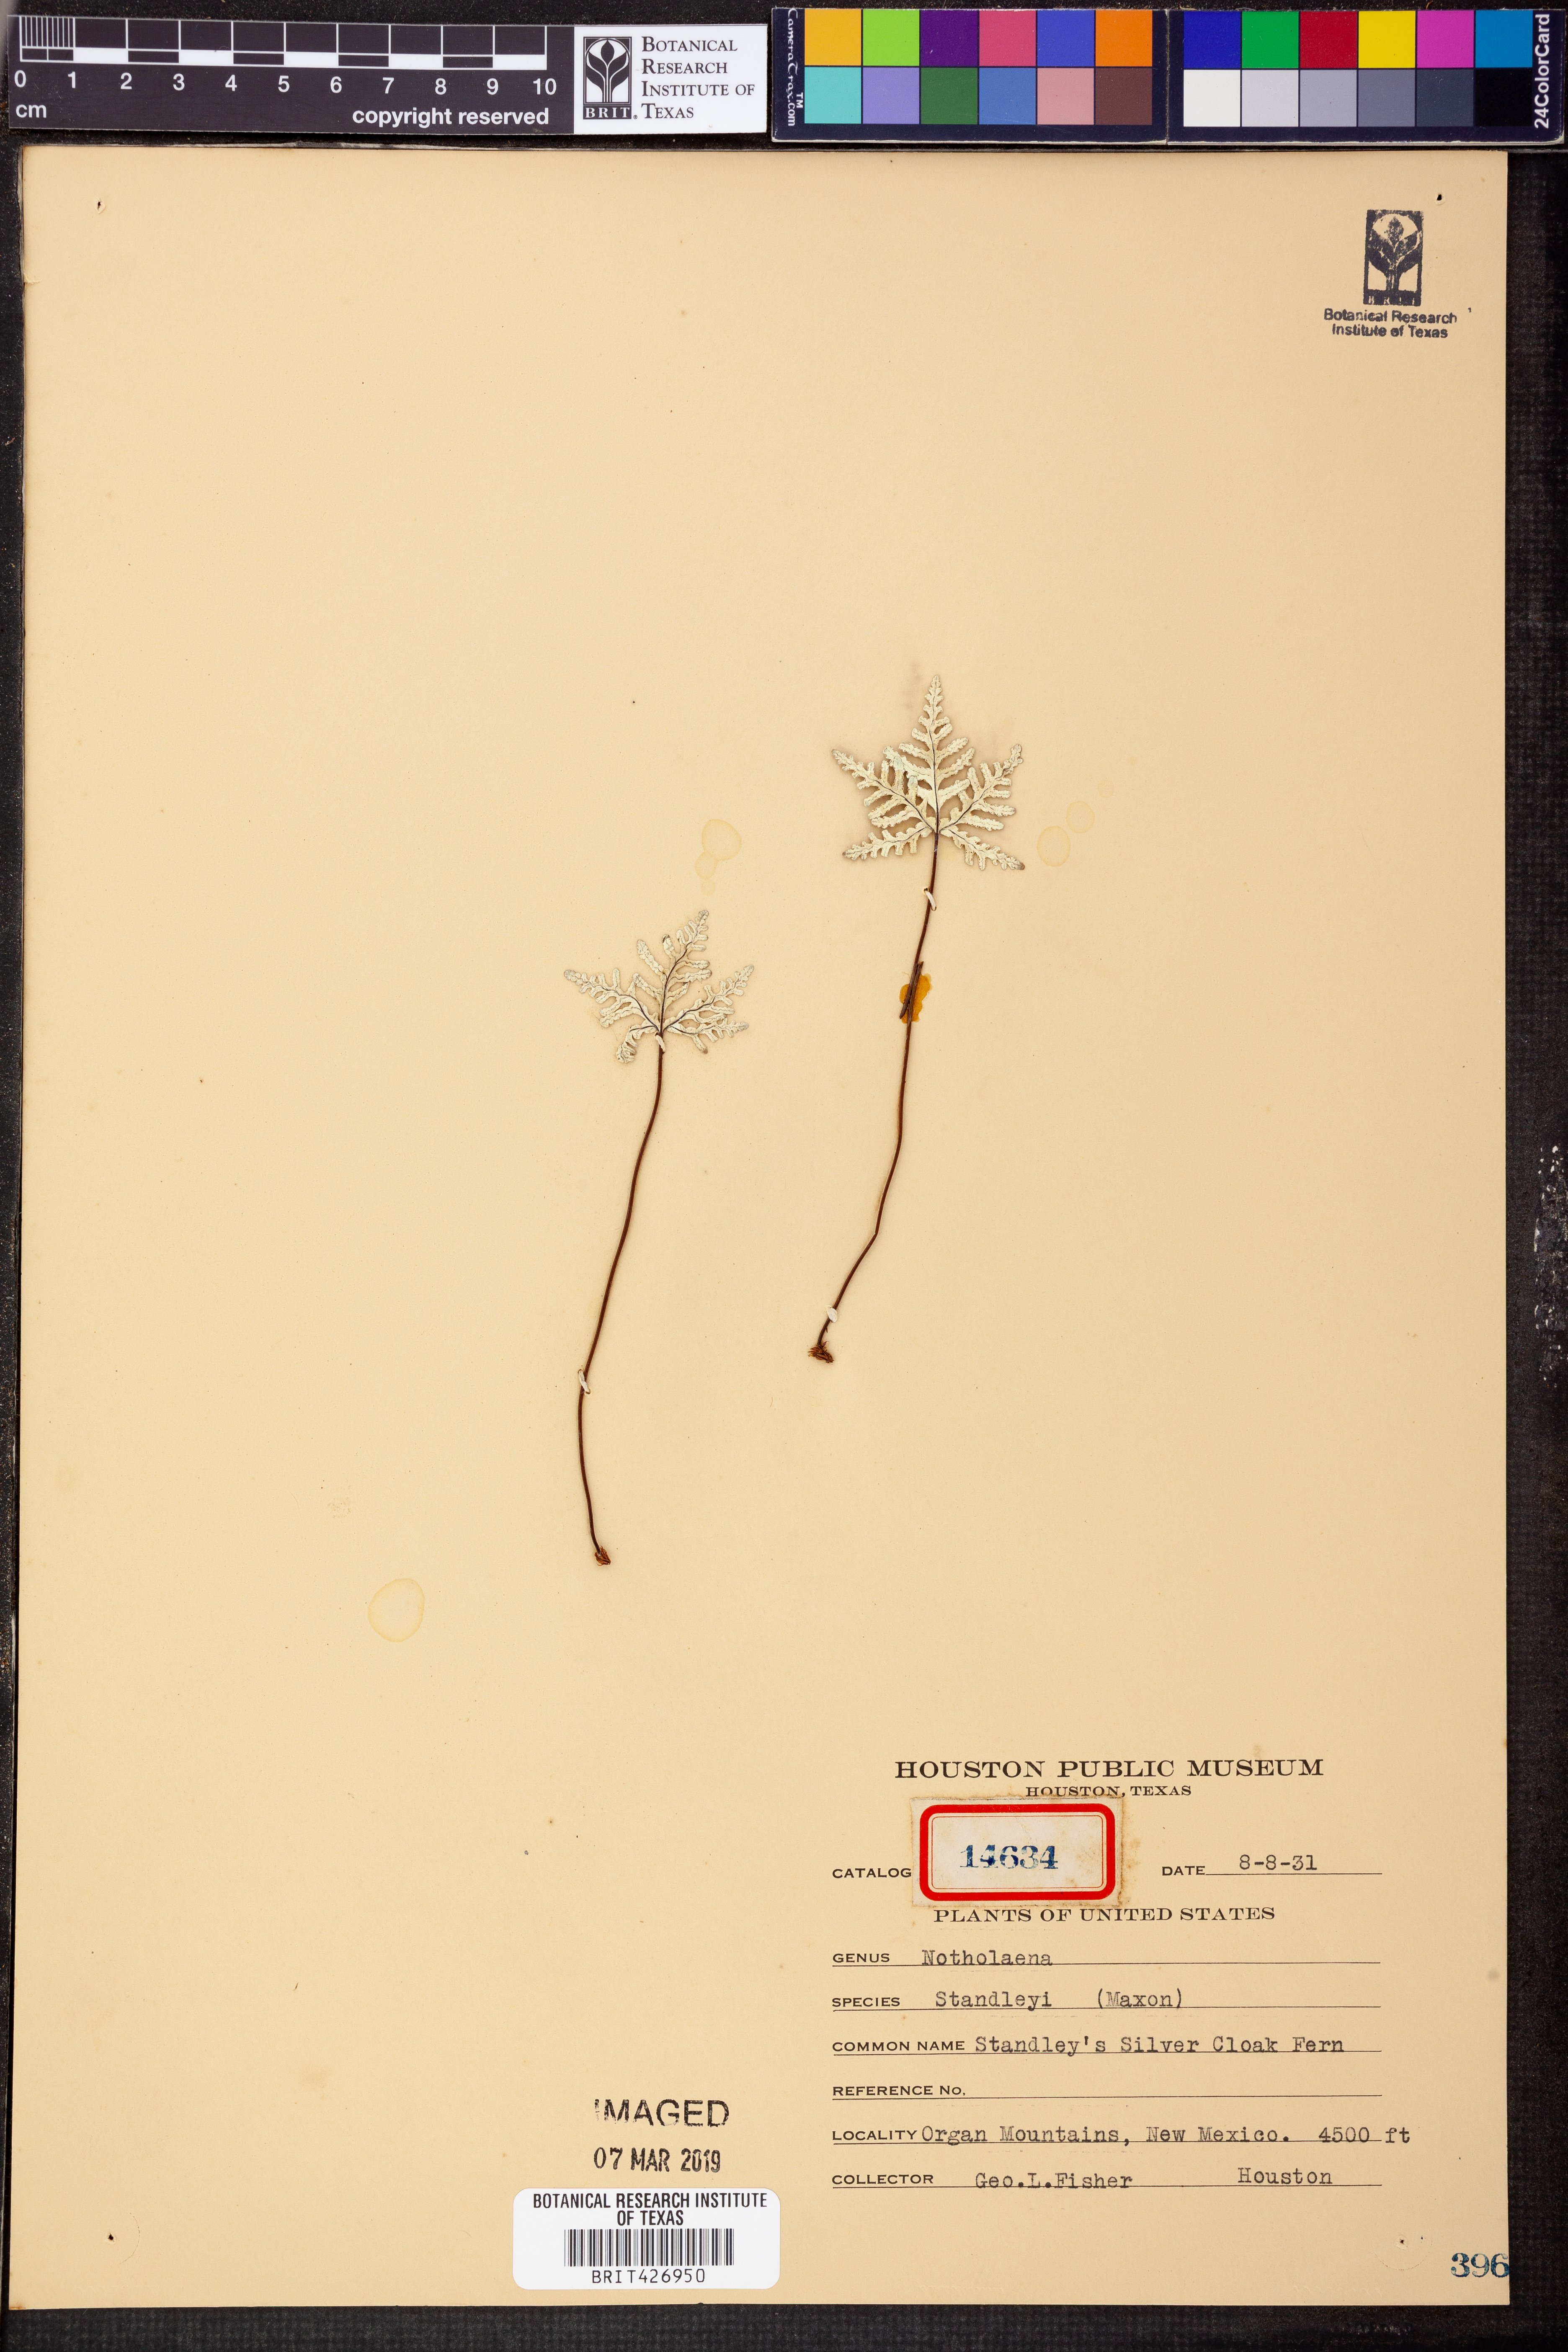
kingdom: Plantae
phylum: Tracheophyta
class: Polypodiopsida
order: Polypodiales
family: Pteridaceae
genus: Notholaena
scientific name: Notholaena standleyi
